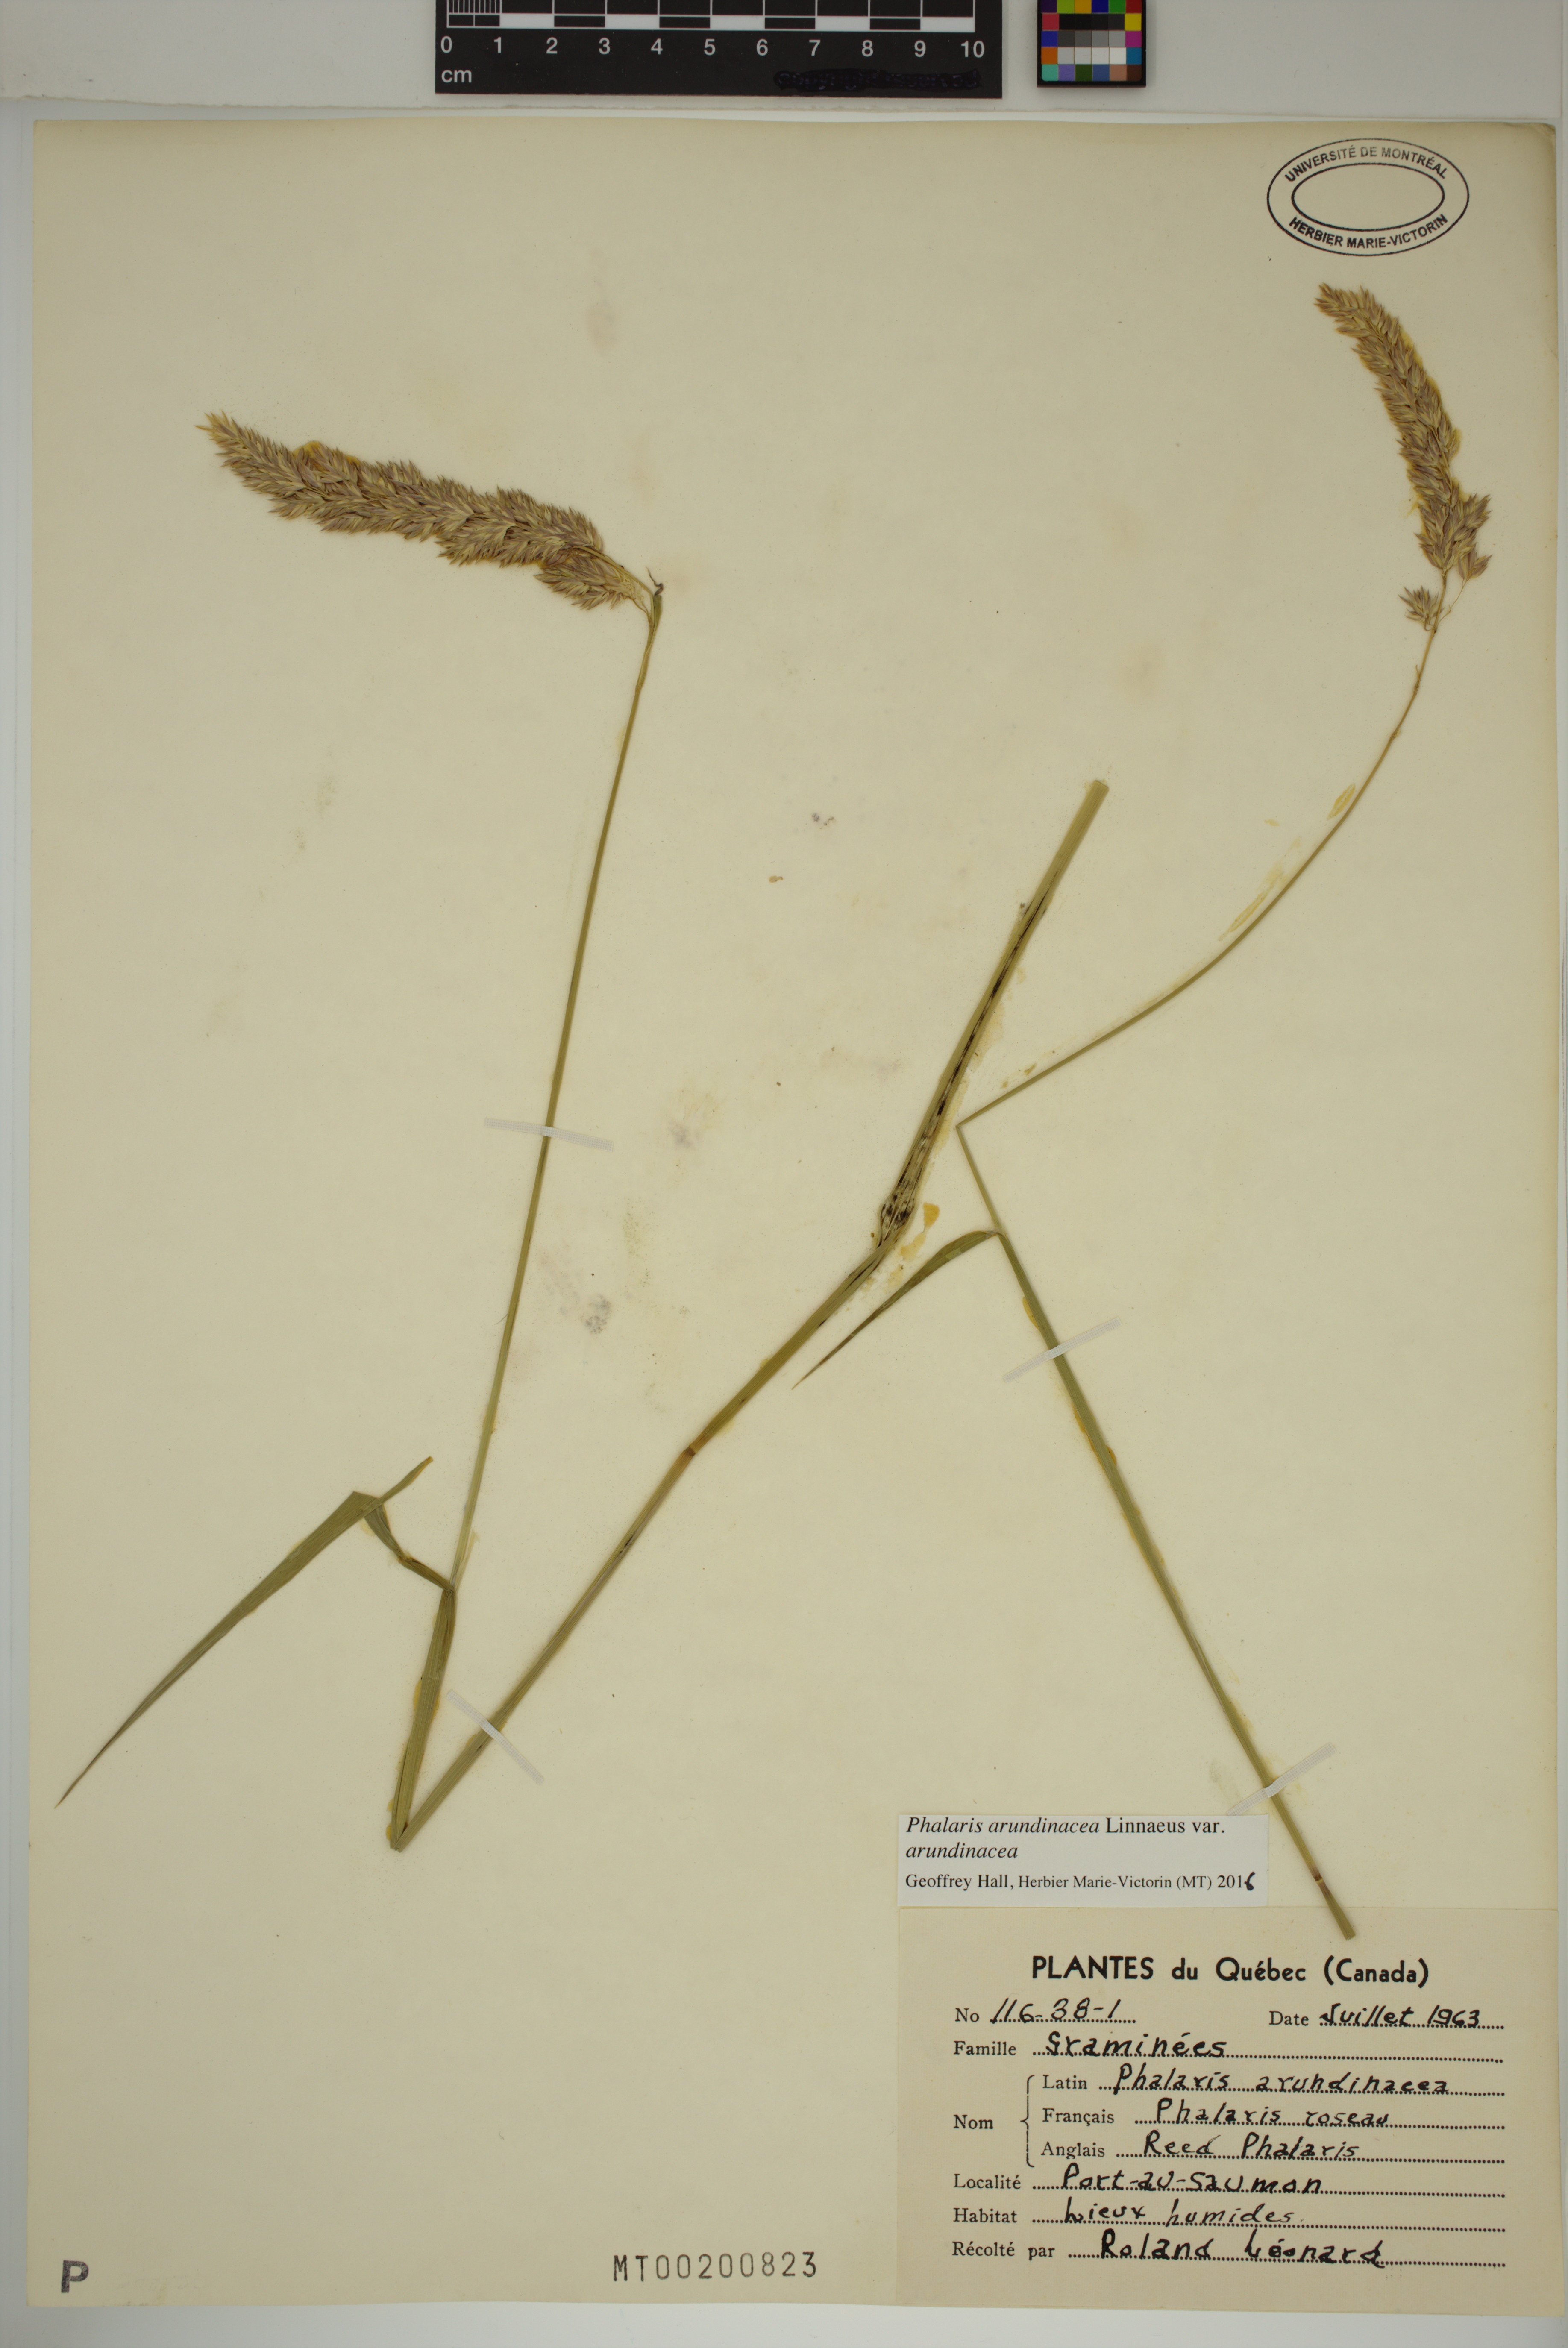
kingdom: Plantae
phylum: Tracheophyta
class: Liliopsida
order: Poales
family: Poaceae
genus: Phalaris
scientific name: Phalaris arundinacea
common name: Reed canary-grass
